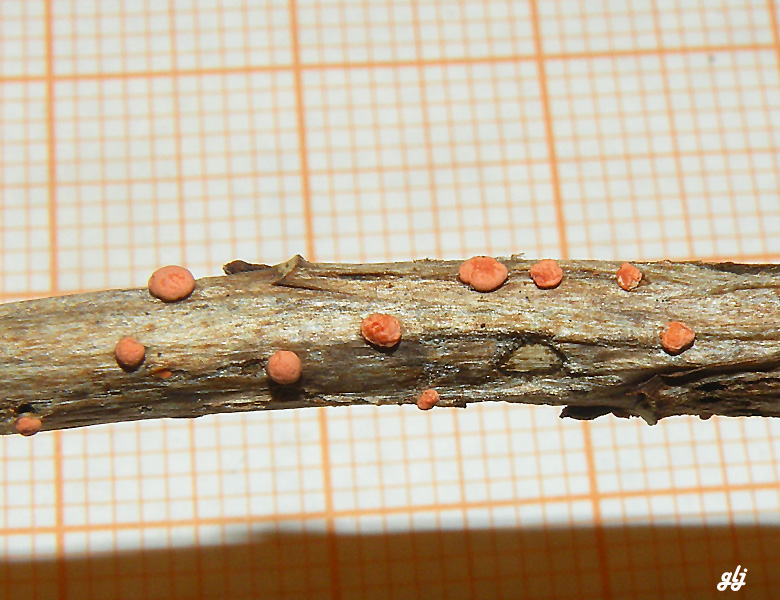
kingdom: Fungi
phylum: Ascomycota
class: Sordariomycetes
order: Hypocreales
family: Nectriaceae
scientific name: Nectriaceae
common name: cinnobersvampfamilien
